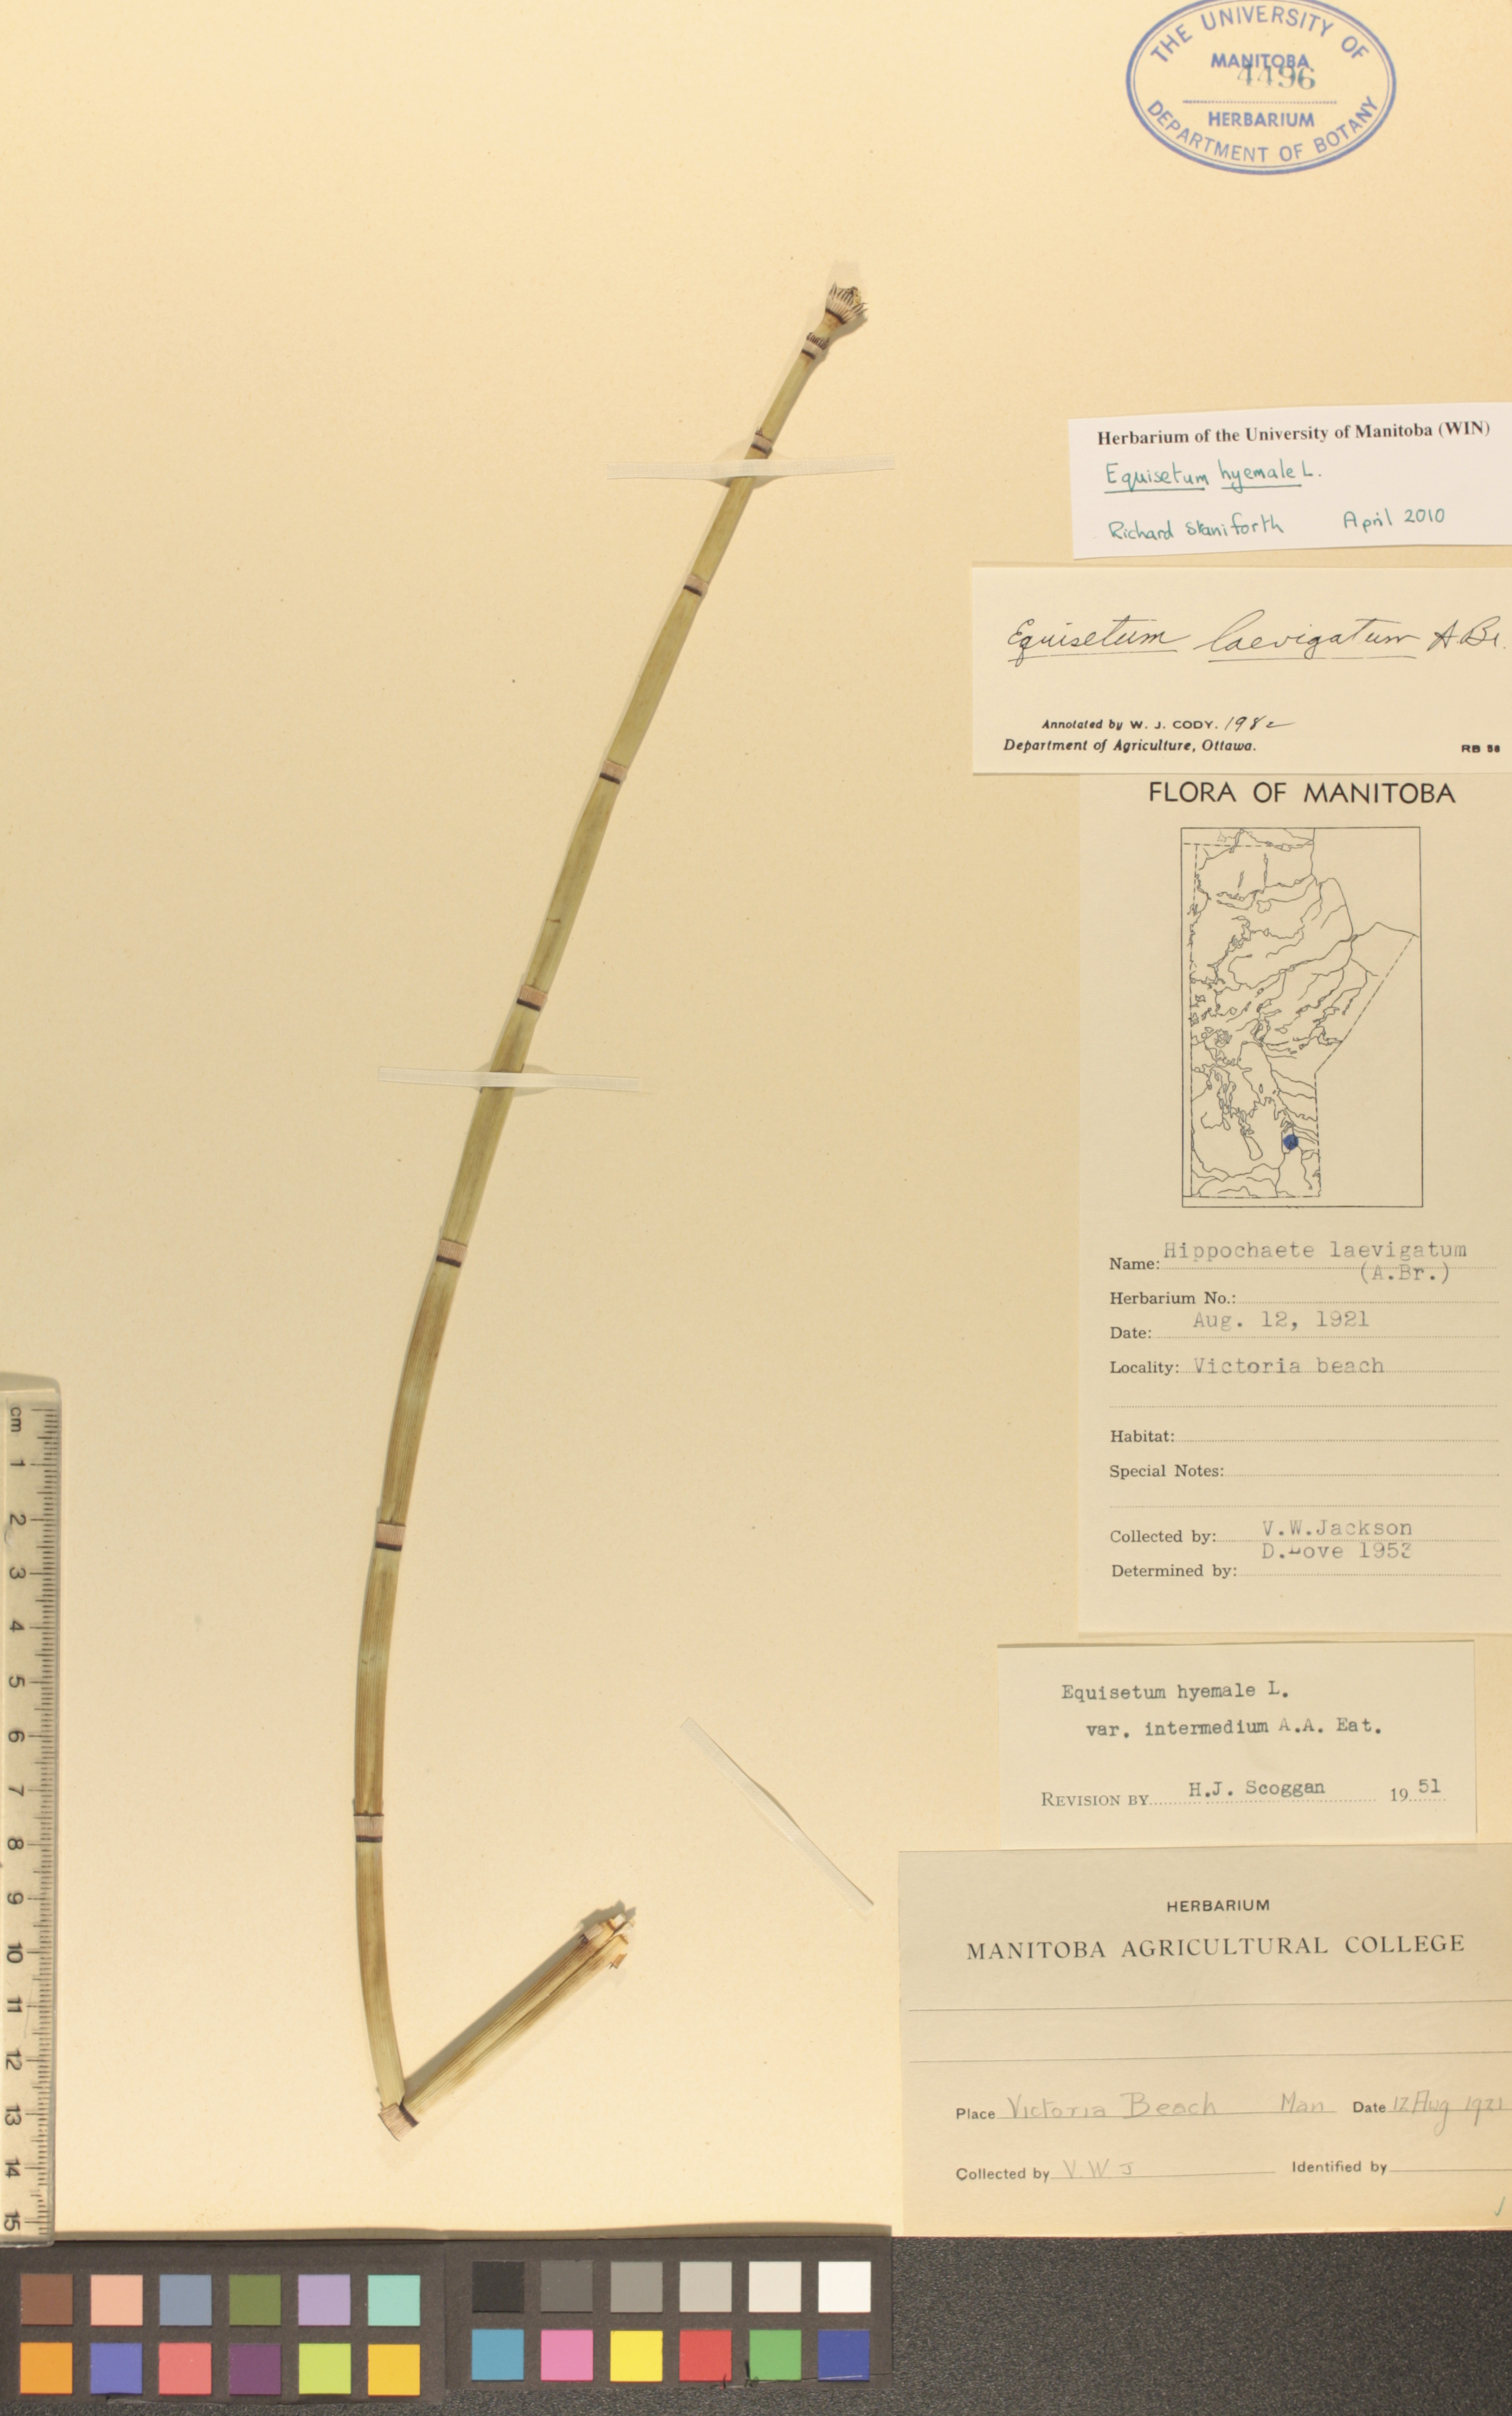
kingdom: Plantae
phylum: Tracheophyta
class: Polypodiopsida
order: Equisetales
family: Equisetaceae
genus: Equisetum
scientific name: Equisetum hyemale
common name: Rough horsetail
